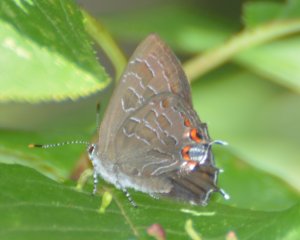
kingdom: Animalia
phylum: Arthropoda
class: Insecta
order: Lepidoptera
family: Lycaenidae
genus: Satyrium
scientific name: Satyrium liparops
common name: Striped Hairstreak
